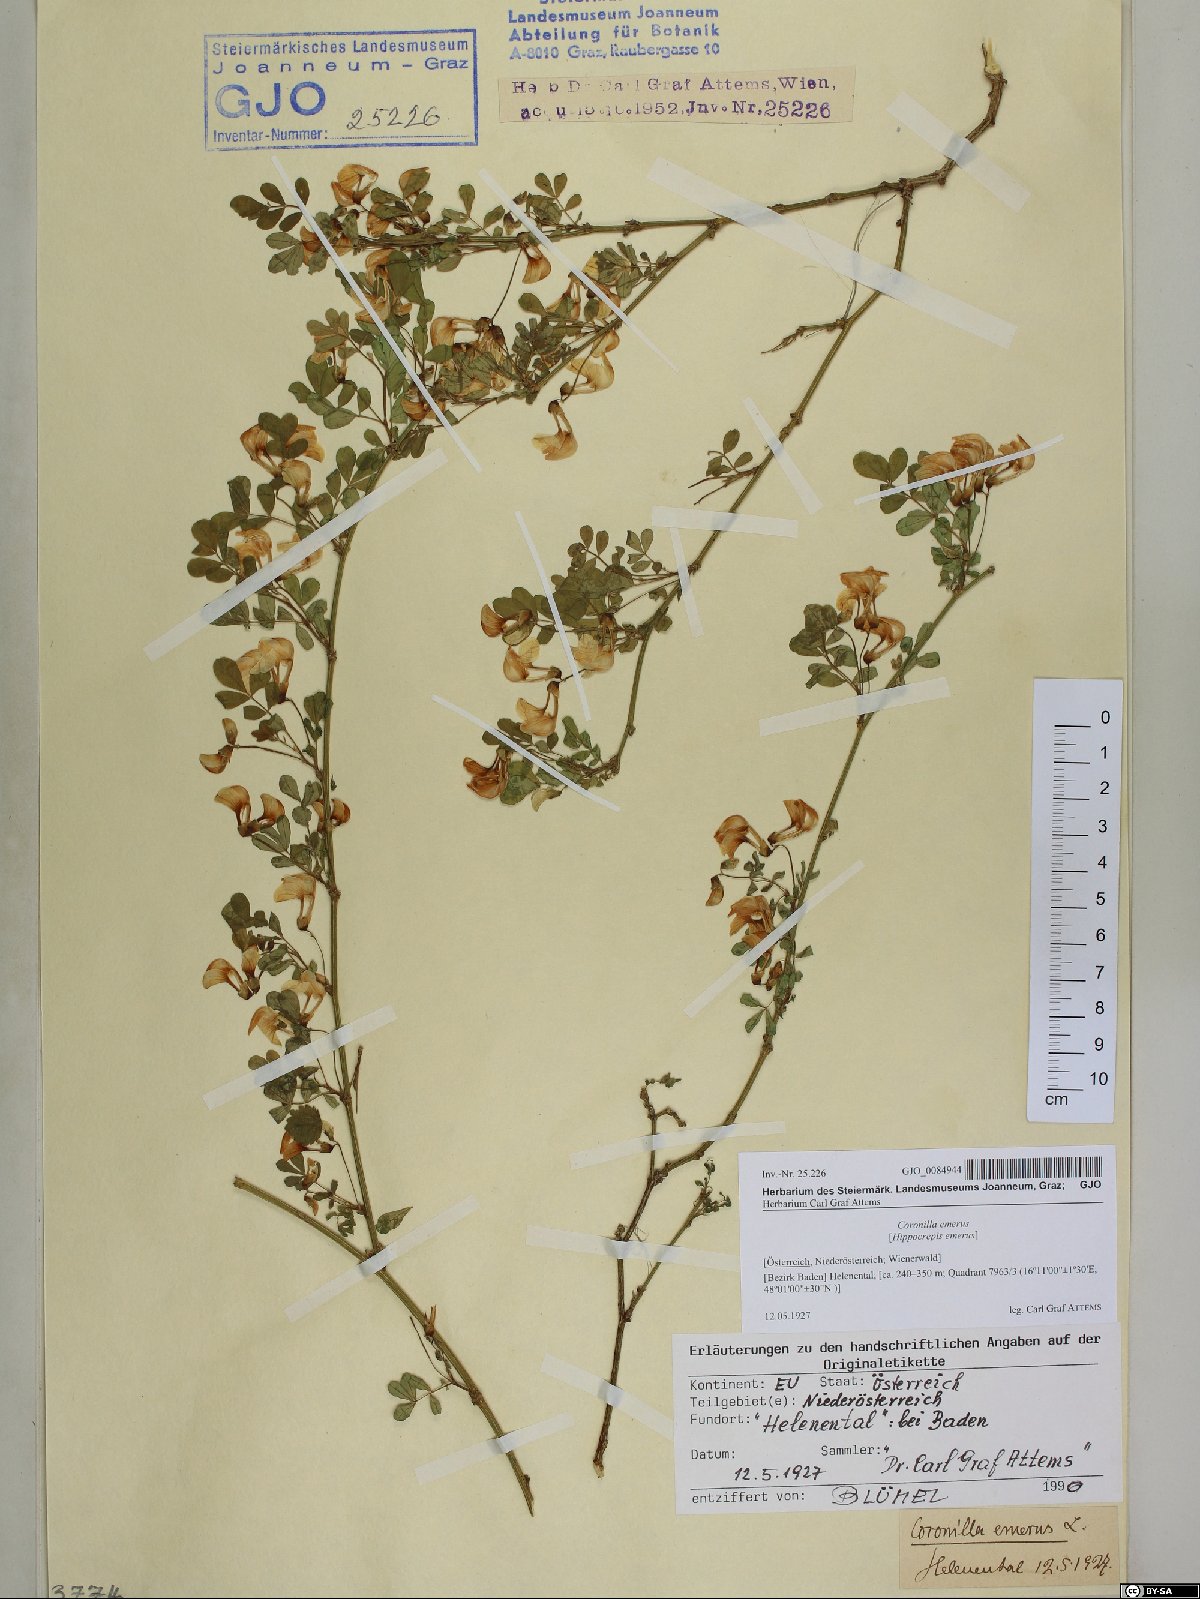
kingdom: Plantae
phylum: Tracheophyta
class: Magnoliopsida
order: Fabales
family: Fabaceae
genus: Hippocrepis
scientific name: Hippocrepis emerus
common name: Scorpion senna
